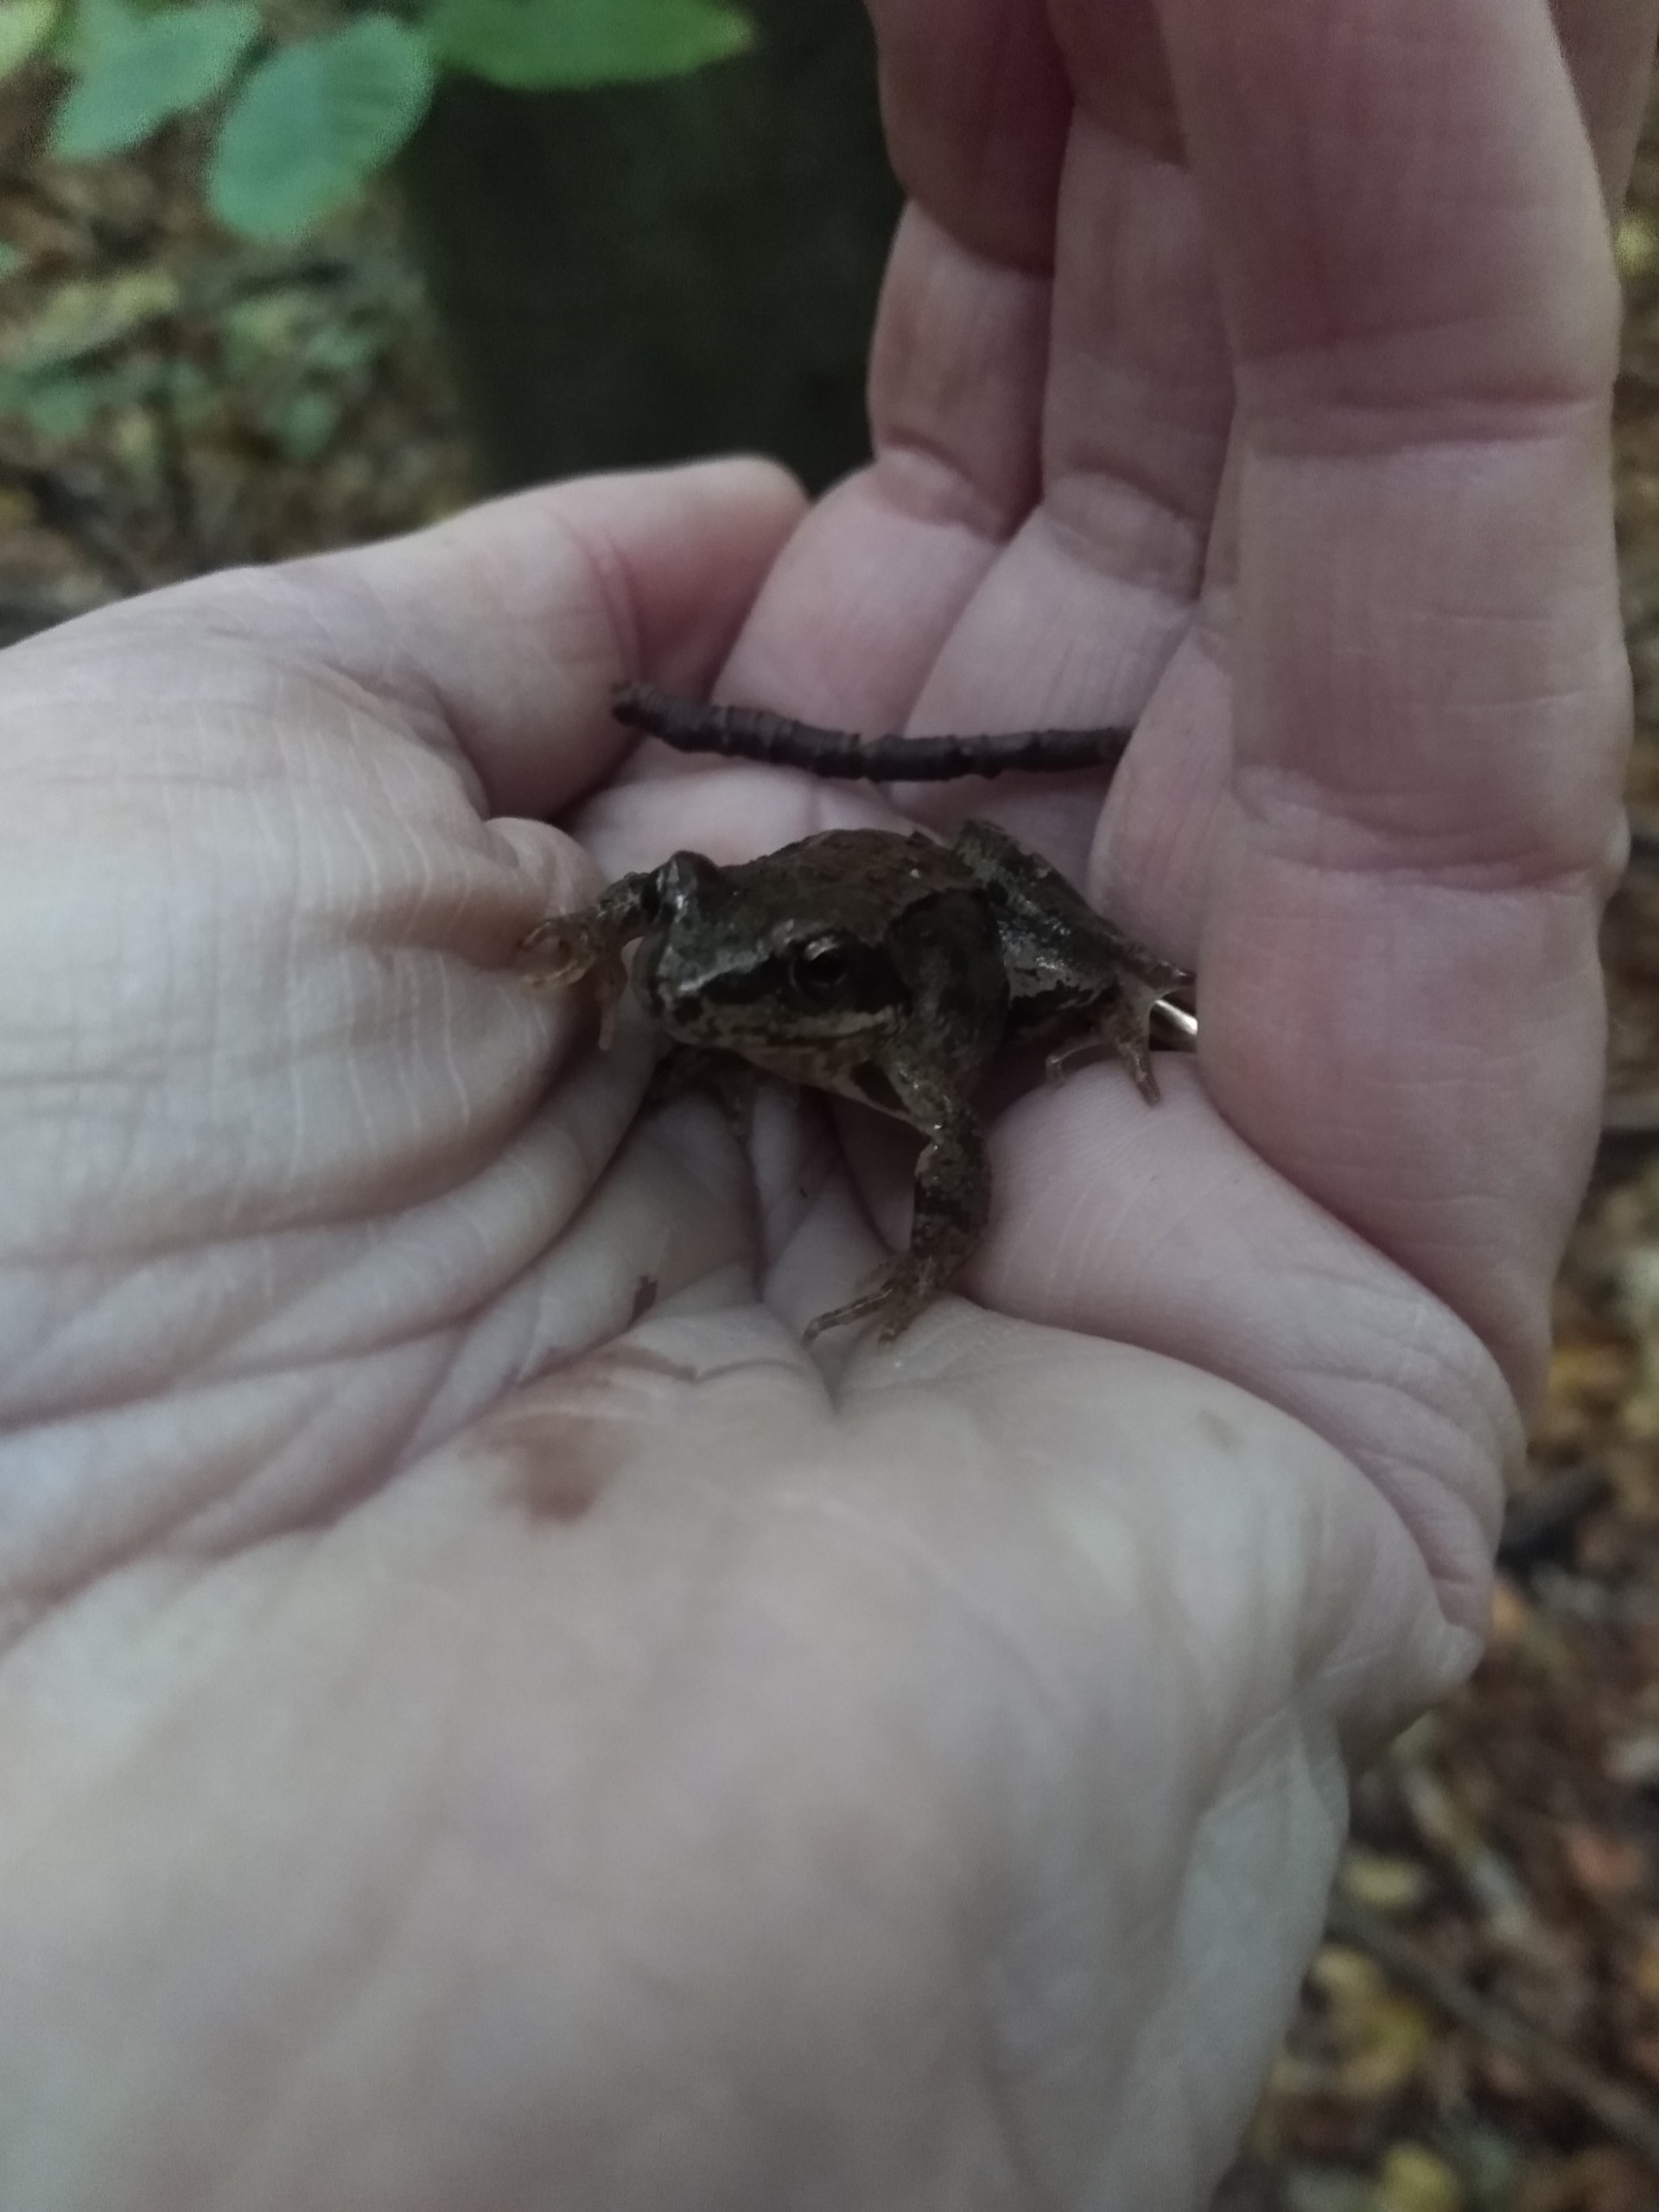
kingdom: Animalia
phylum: Chordata
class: Amphibia
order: Anura
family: Ranidae
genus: Rana
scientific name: Rana temporaria
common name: Butsnudet frø
